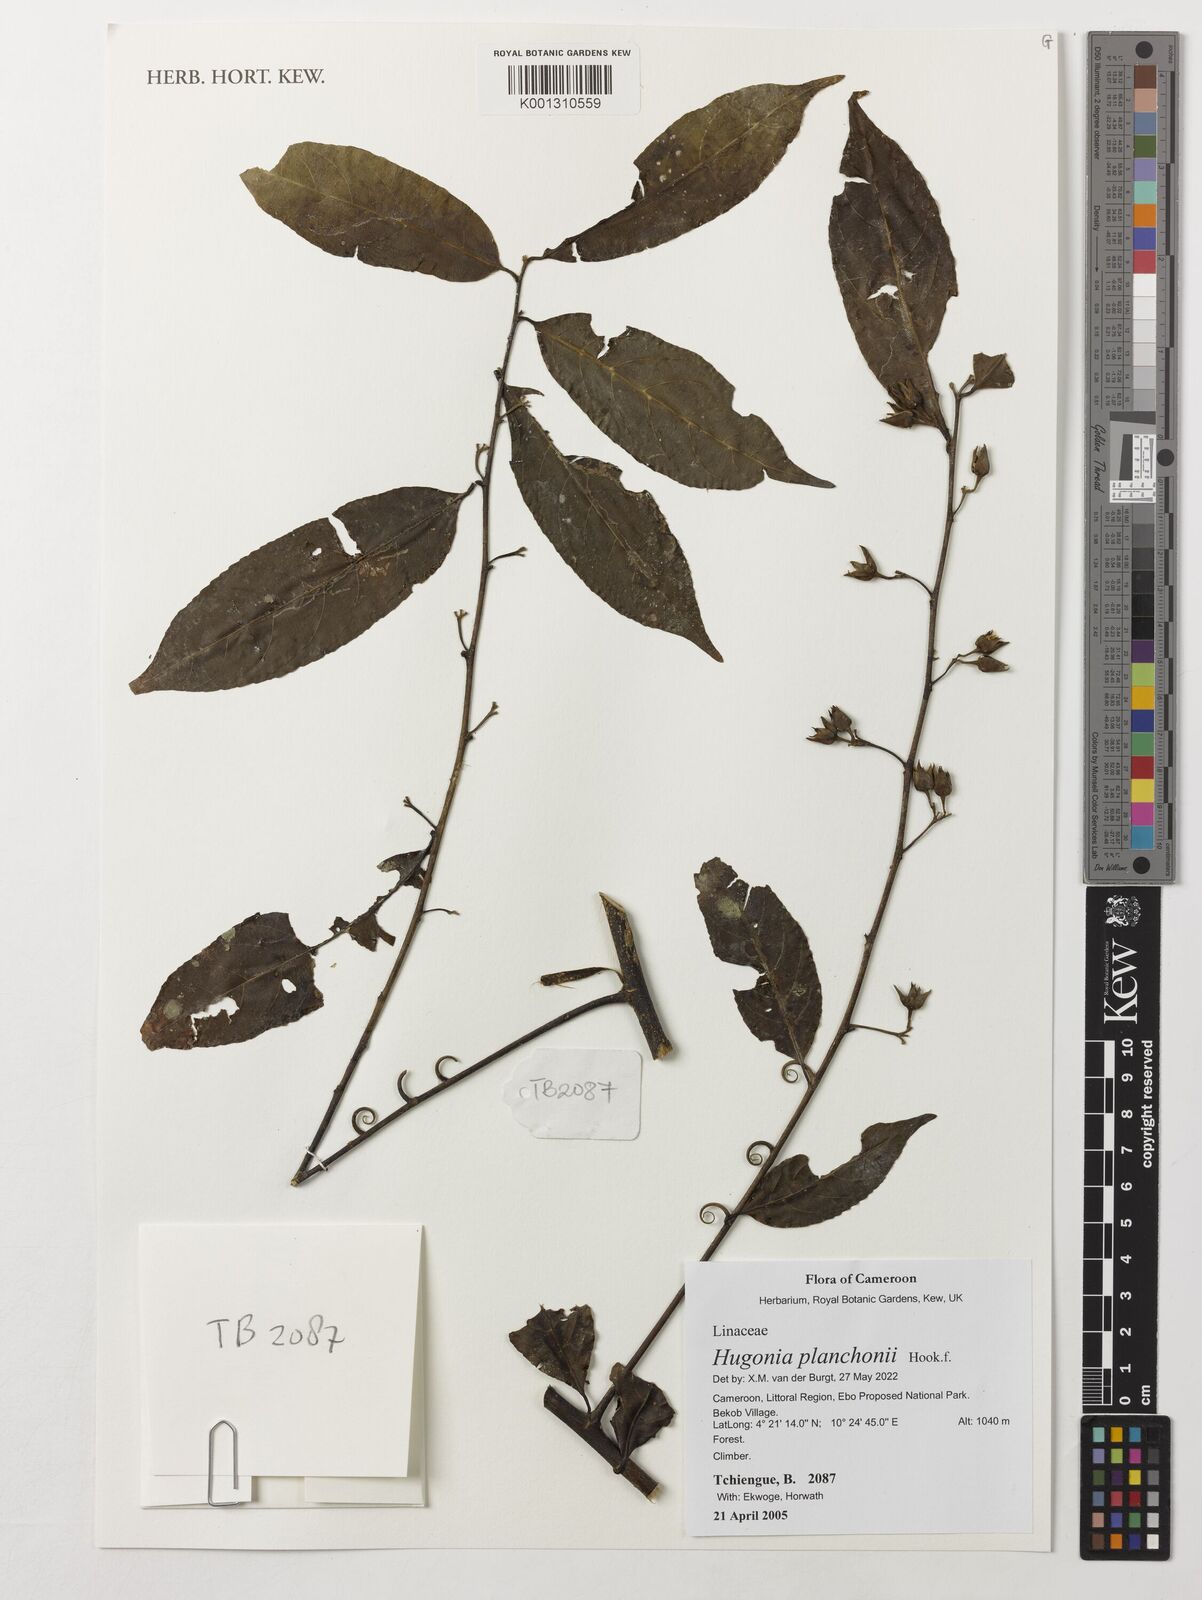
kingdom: Plantae
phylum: Tracheophyta
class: Magnoliopsida
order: Malpighiales
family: Linaceae
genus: Hugonia
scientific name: Hugonia planchonii
